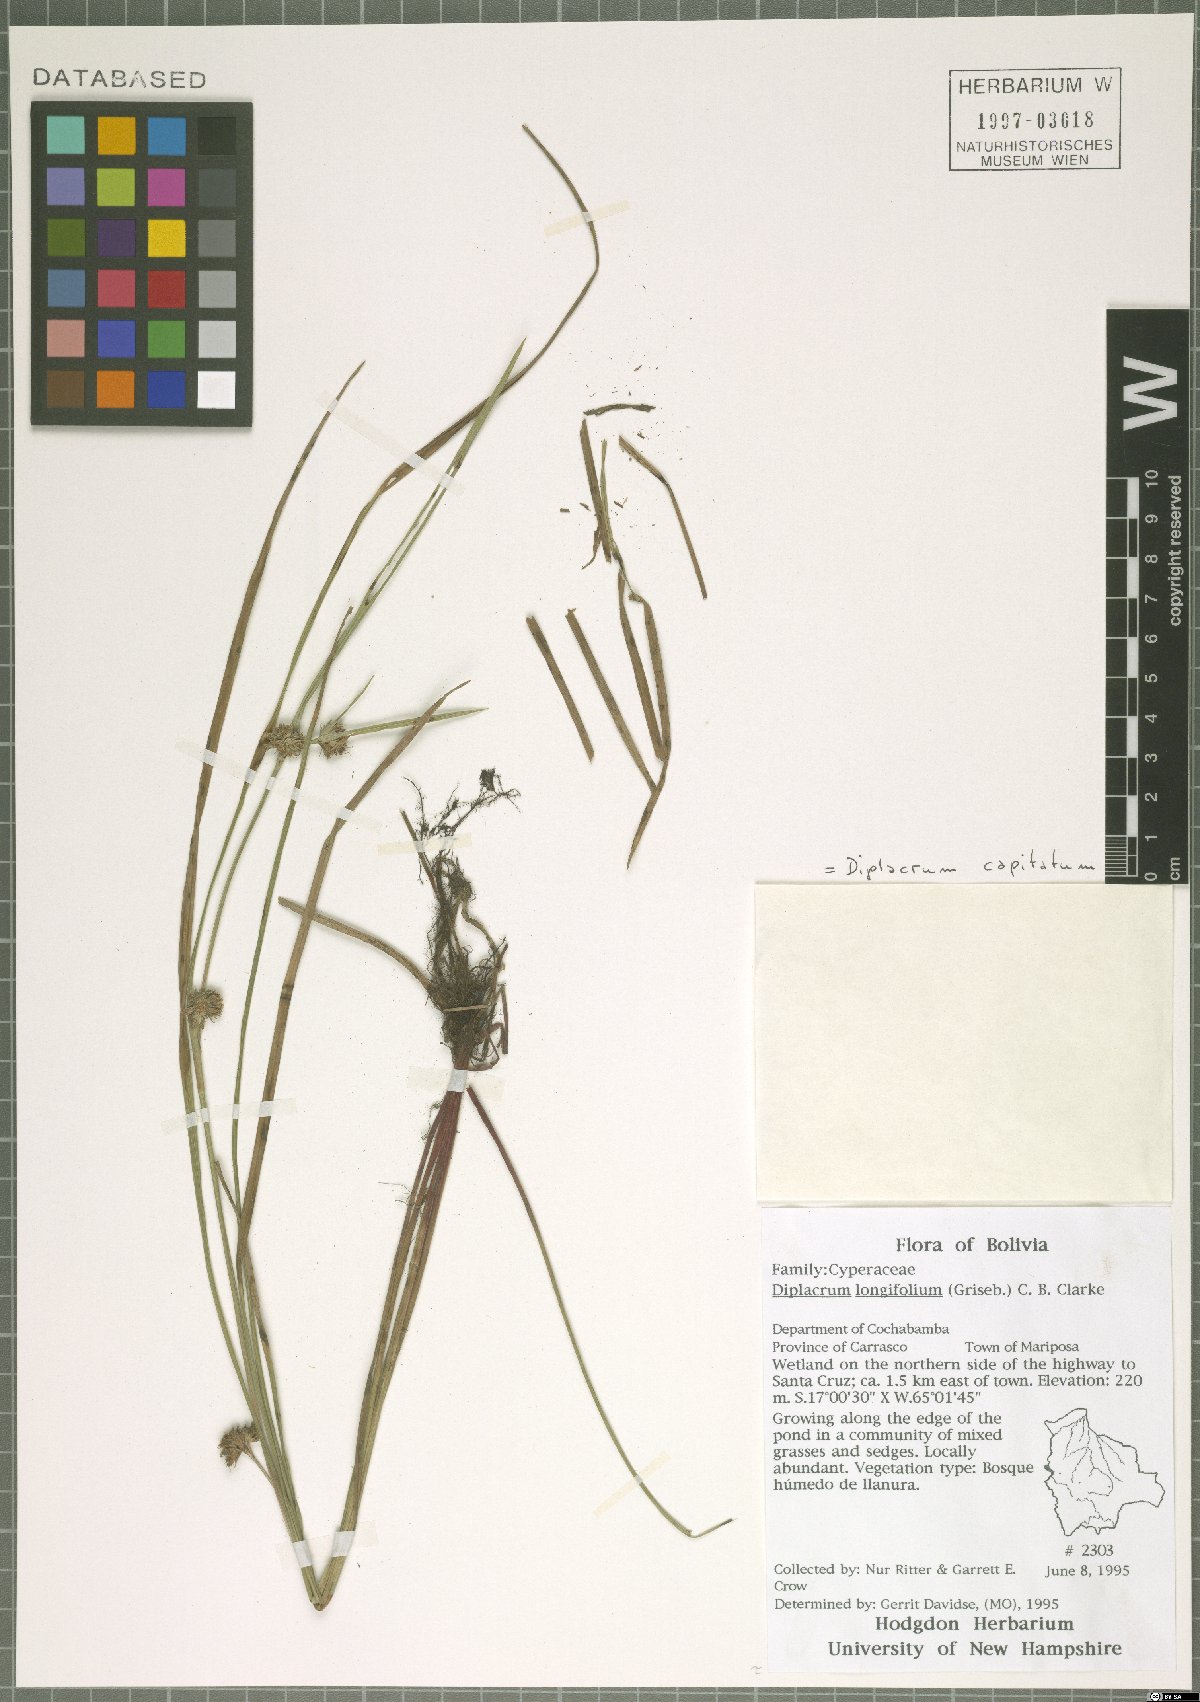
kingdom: Plantae
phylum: Tracheophyta
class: Liliopsida
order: Poales
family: Cyperaceae
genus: Diplacrum
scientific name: Diplacrum capitatum
